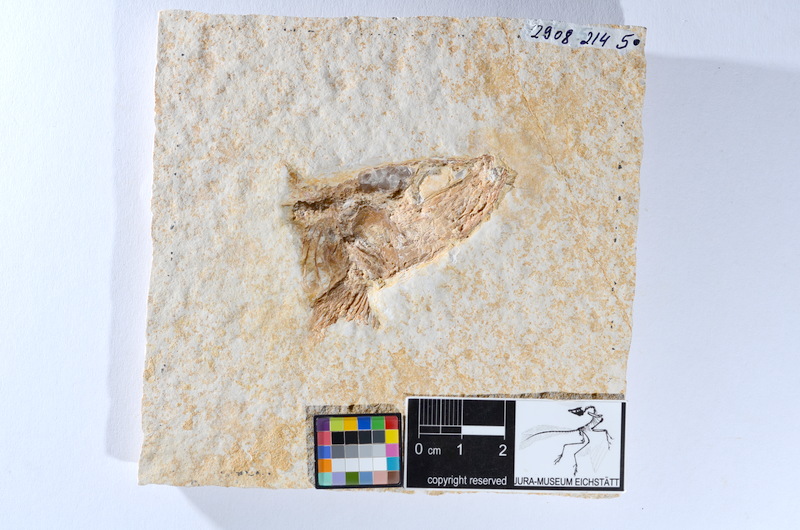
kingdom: Animalia
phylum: Chordata
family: Ascalaboidae
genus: Tharsis
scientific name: Tharsis dubius
